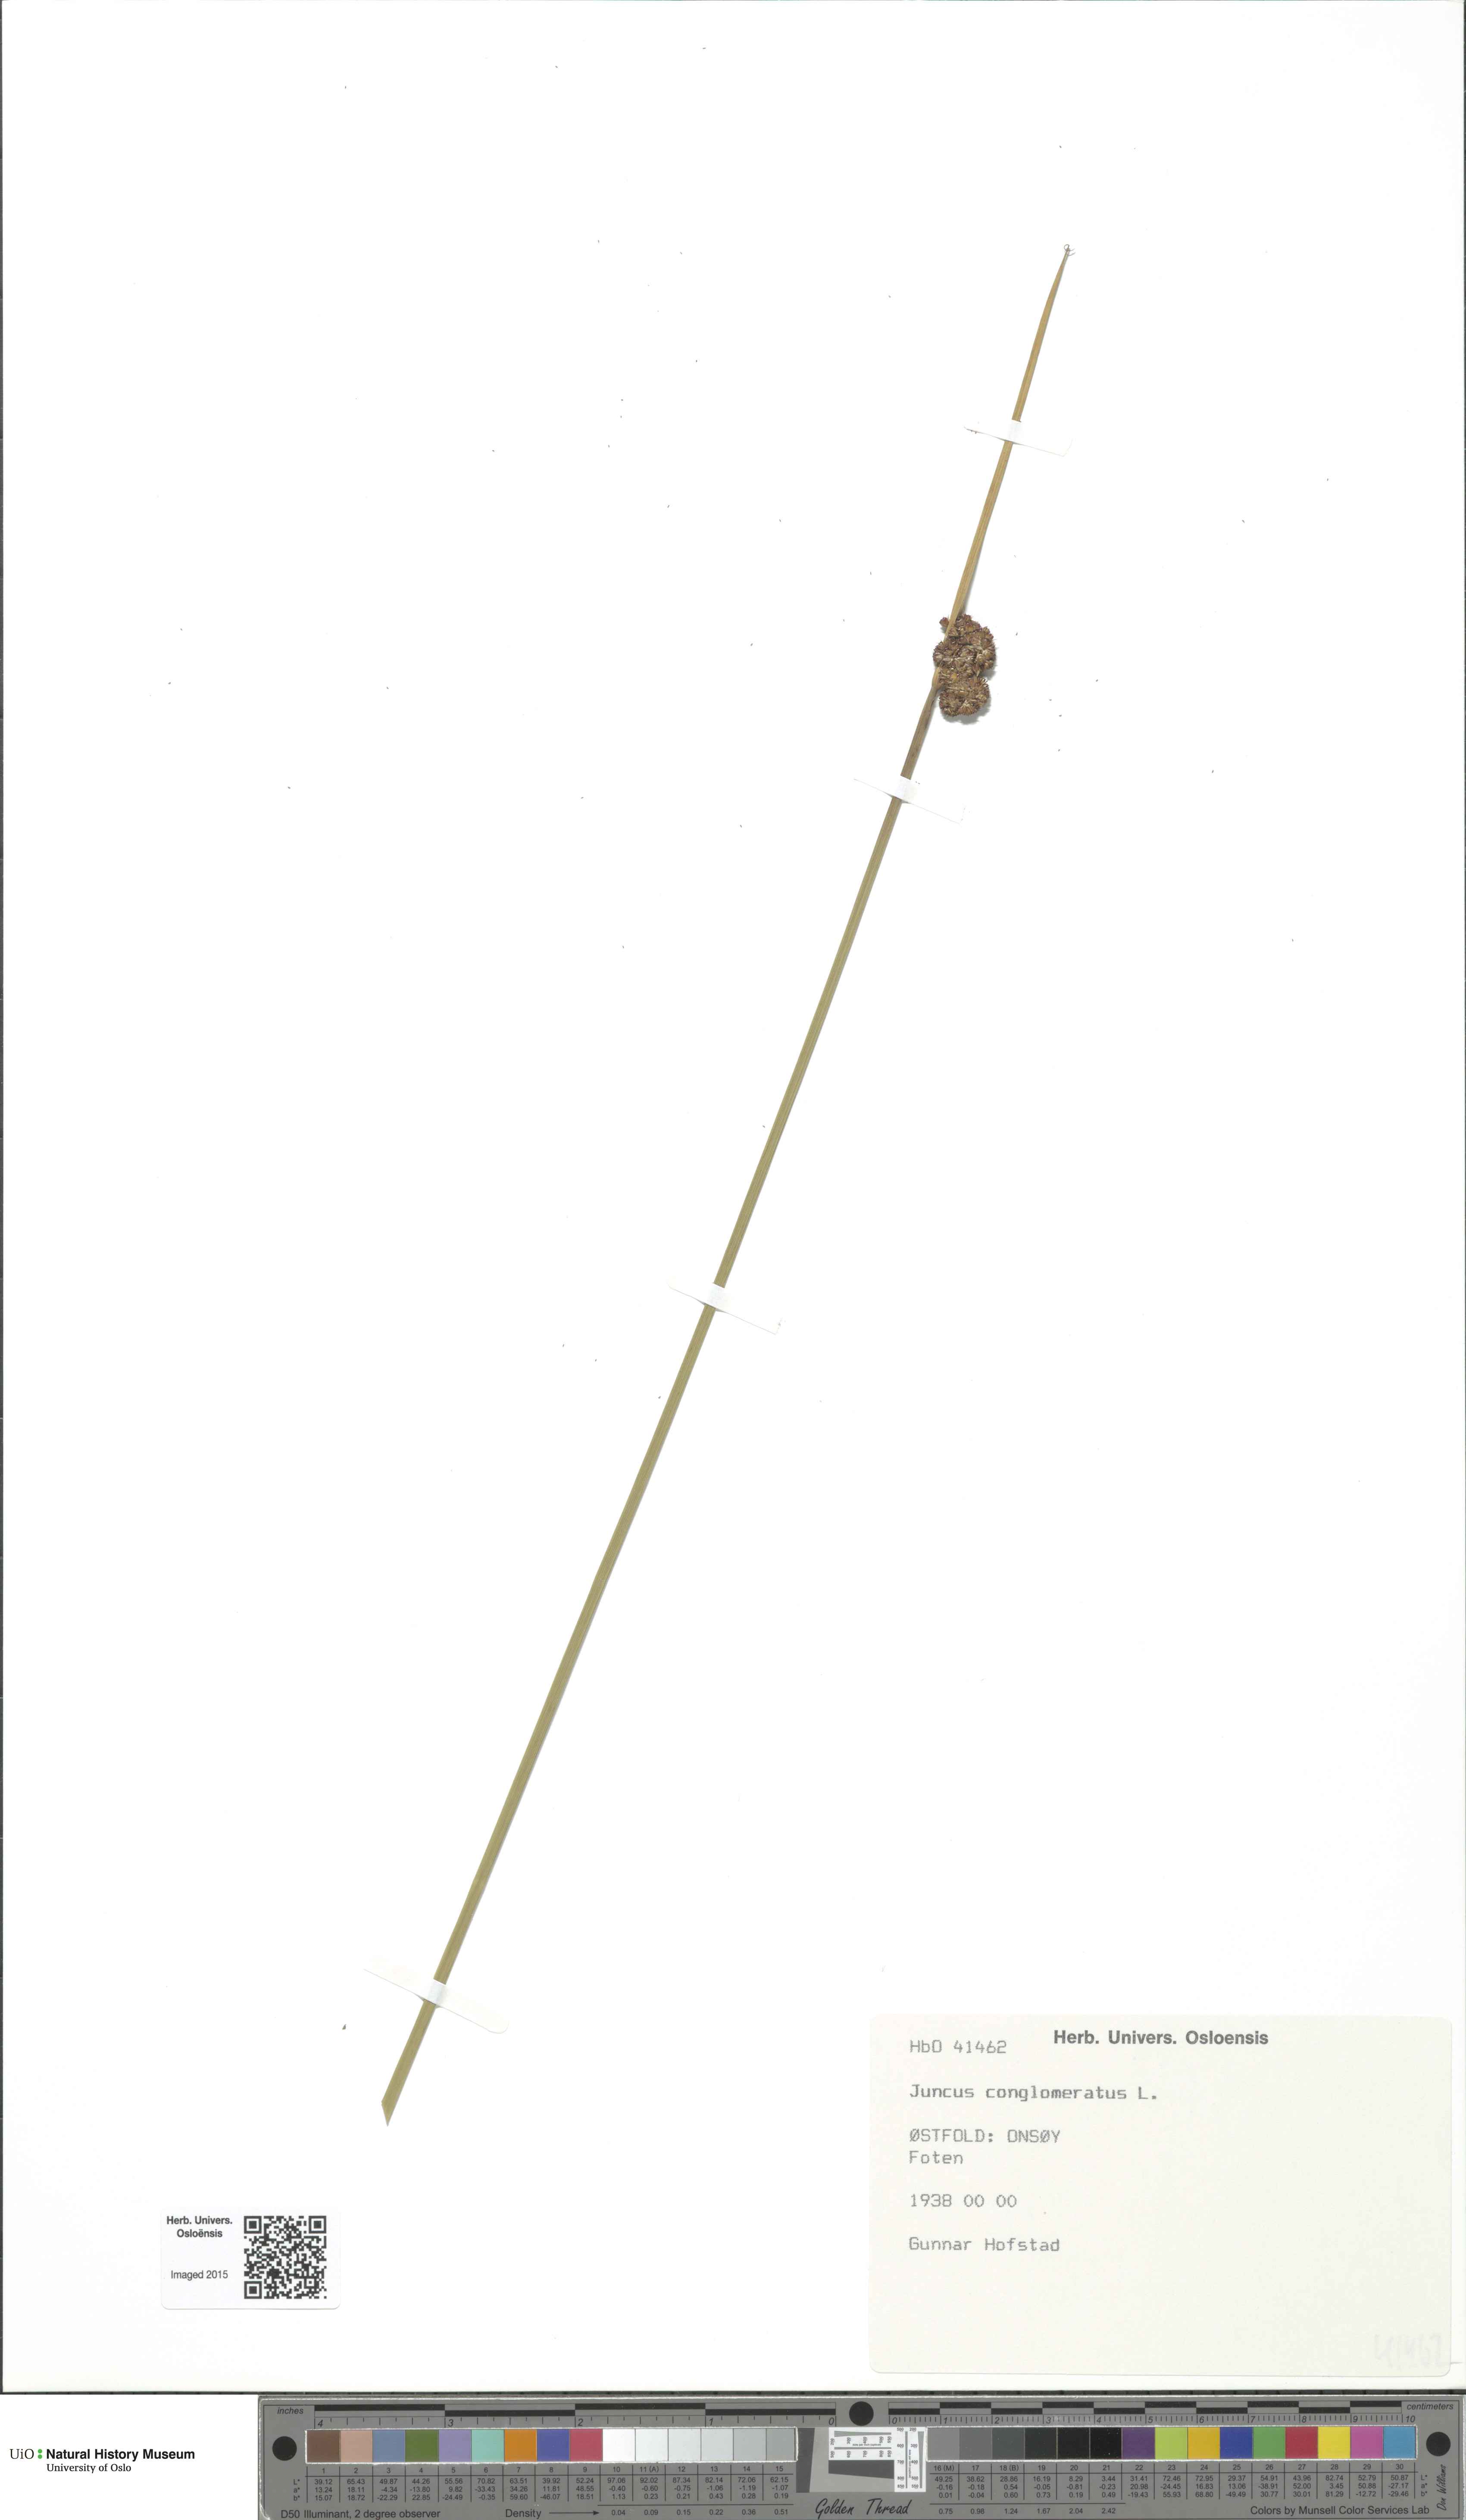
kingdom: Plantae
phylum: Tracheophyta
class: Liliopsida
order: Poales
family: Juncaceae
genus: Juncus
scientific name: Juncus conglomeratus
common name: Compact rush
